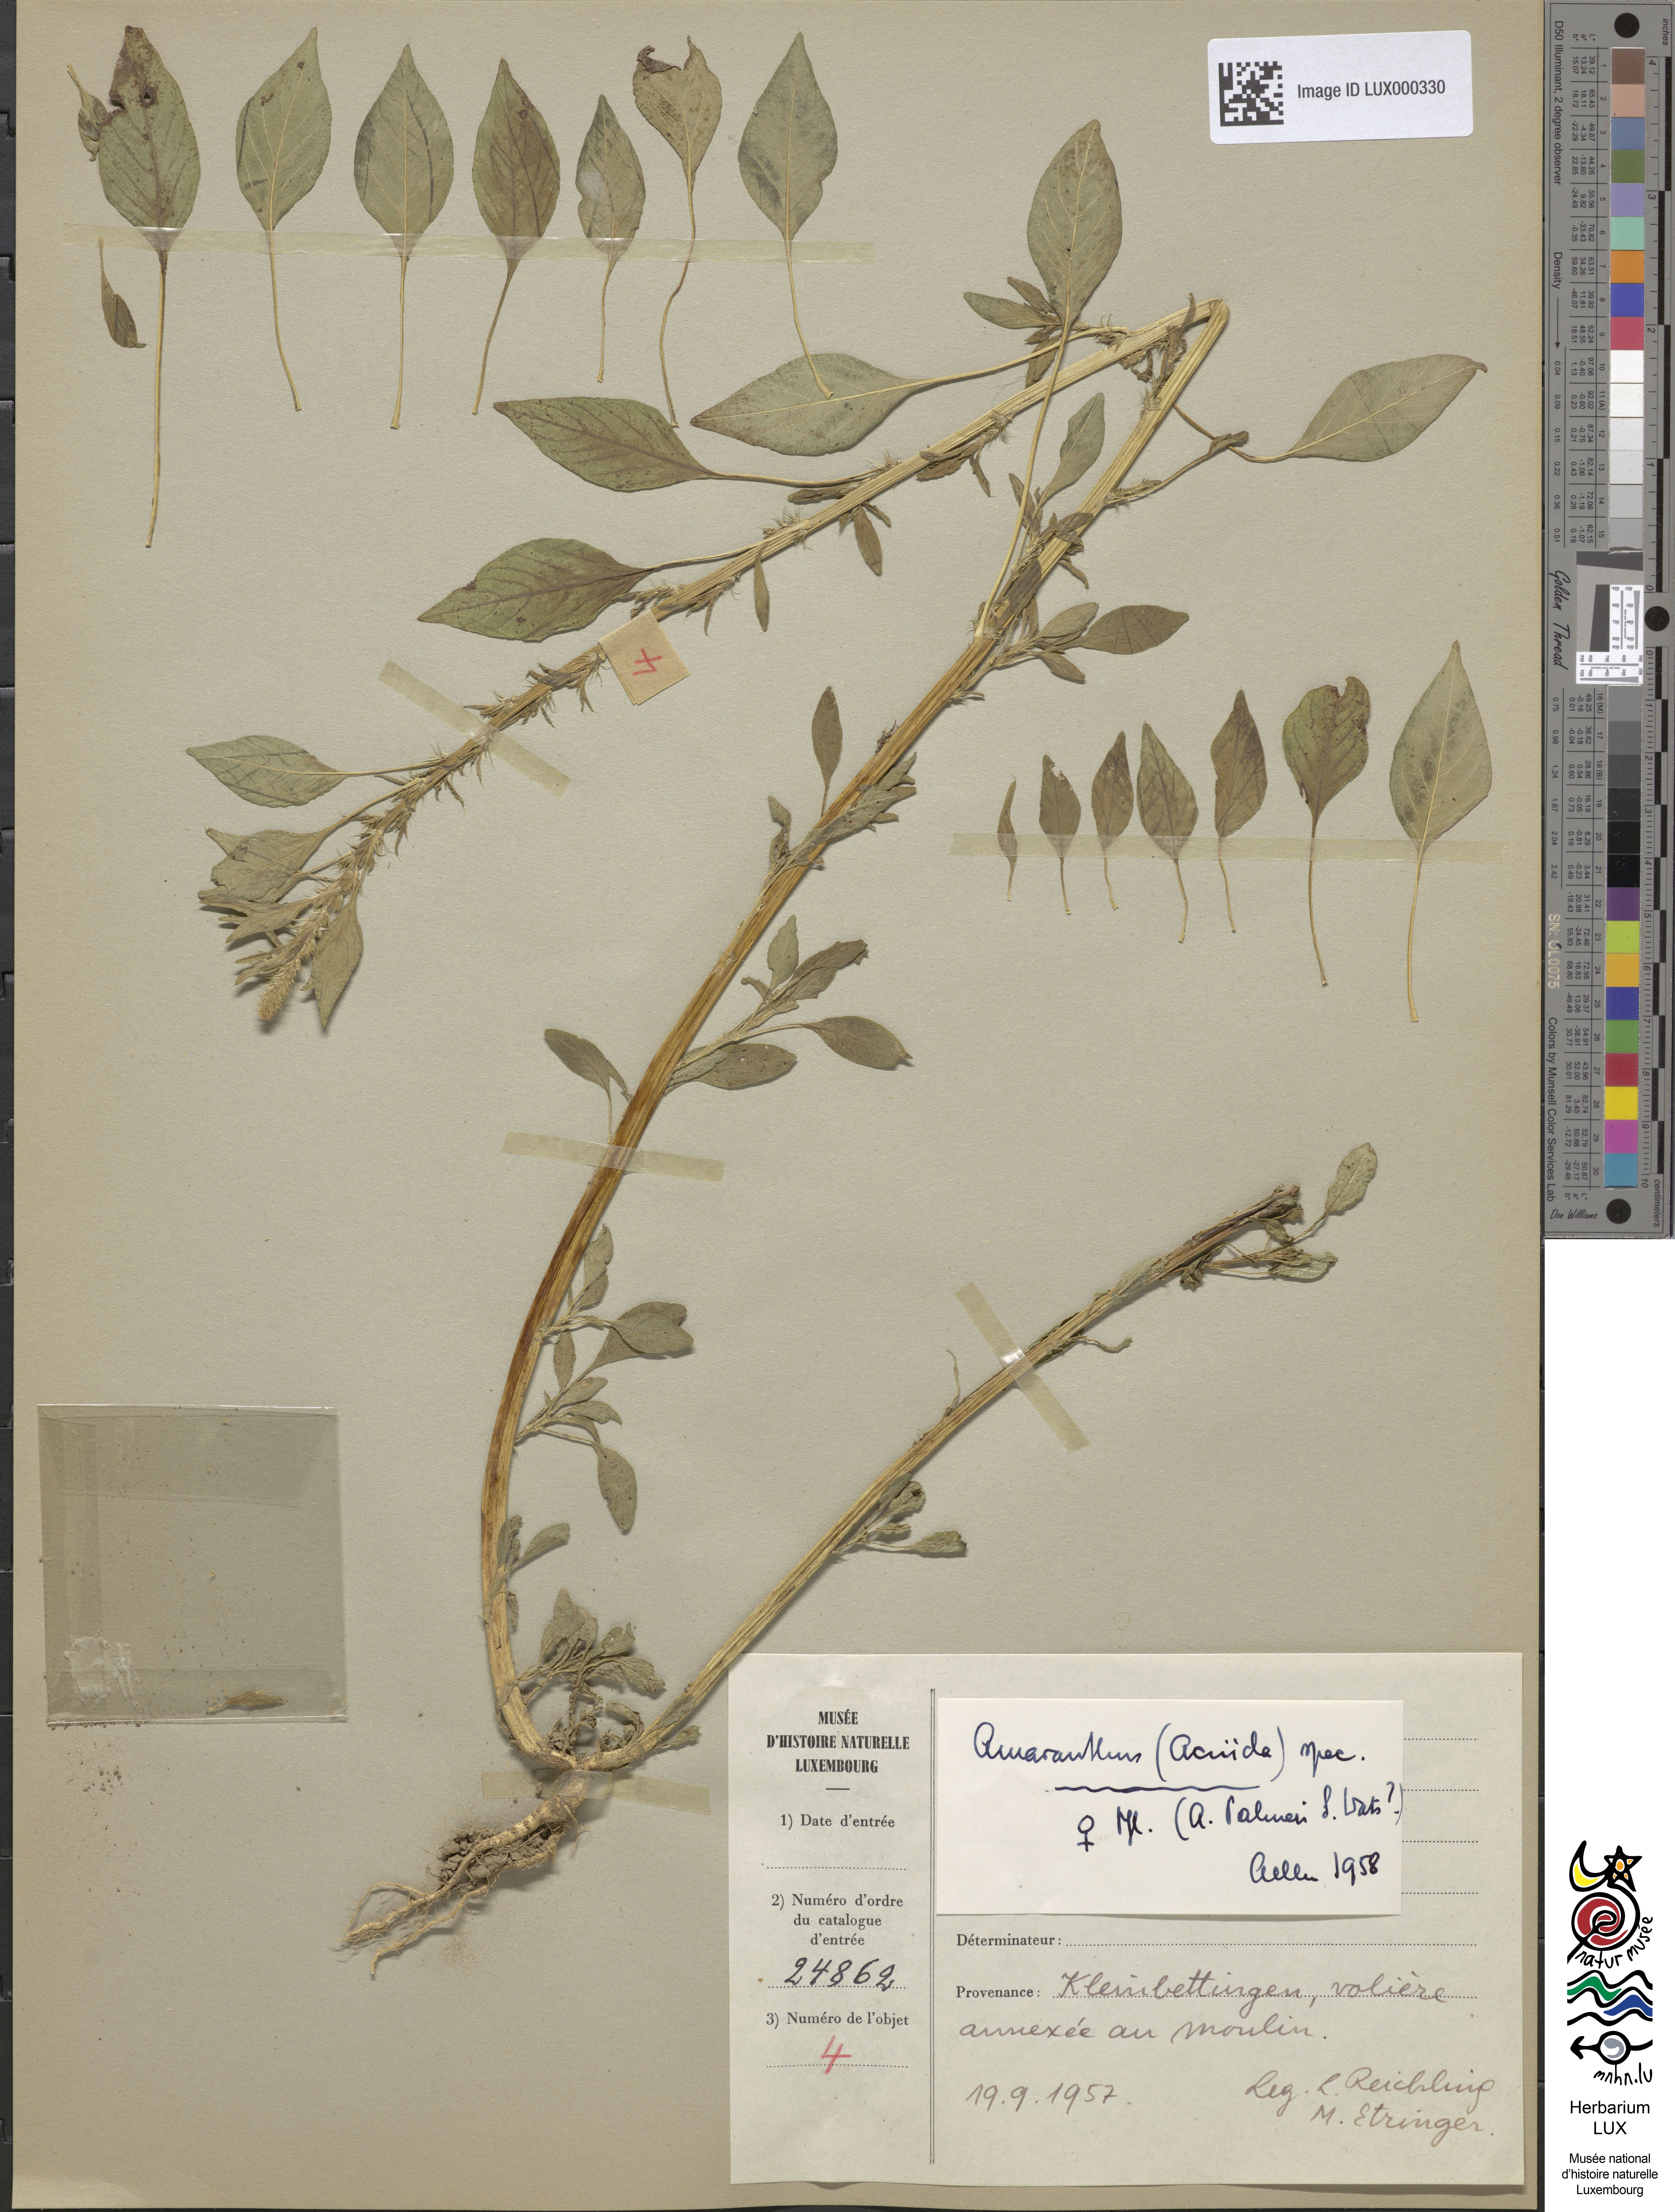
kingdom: Plantae
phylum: Tracheophyta
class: Magnoliopsida
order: Caryophyllales
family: Amaranthaceae
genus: Amaranthus
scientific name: Amaranthus
